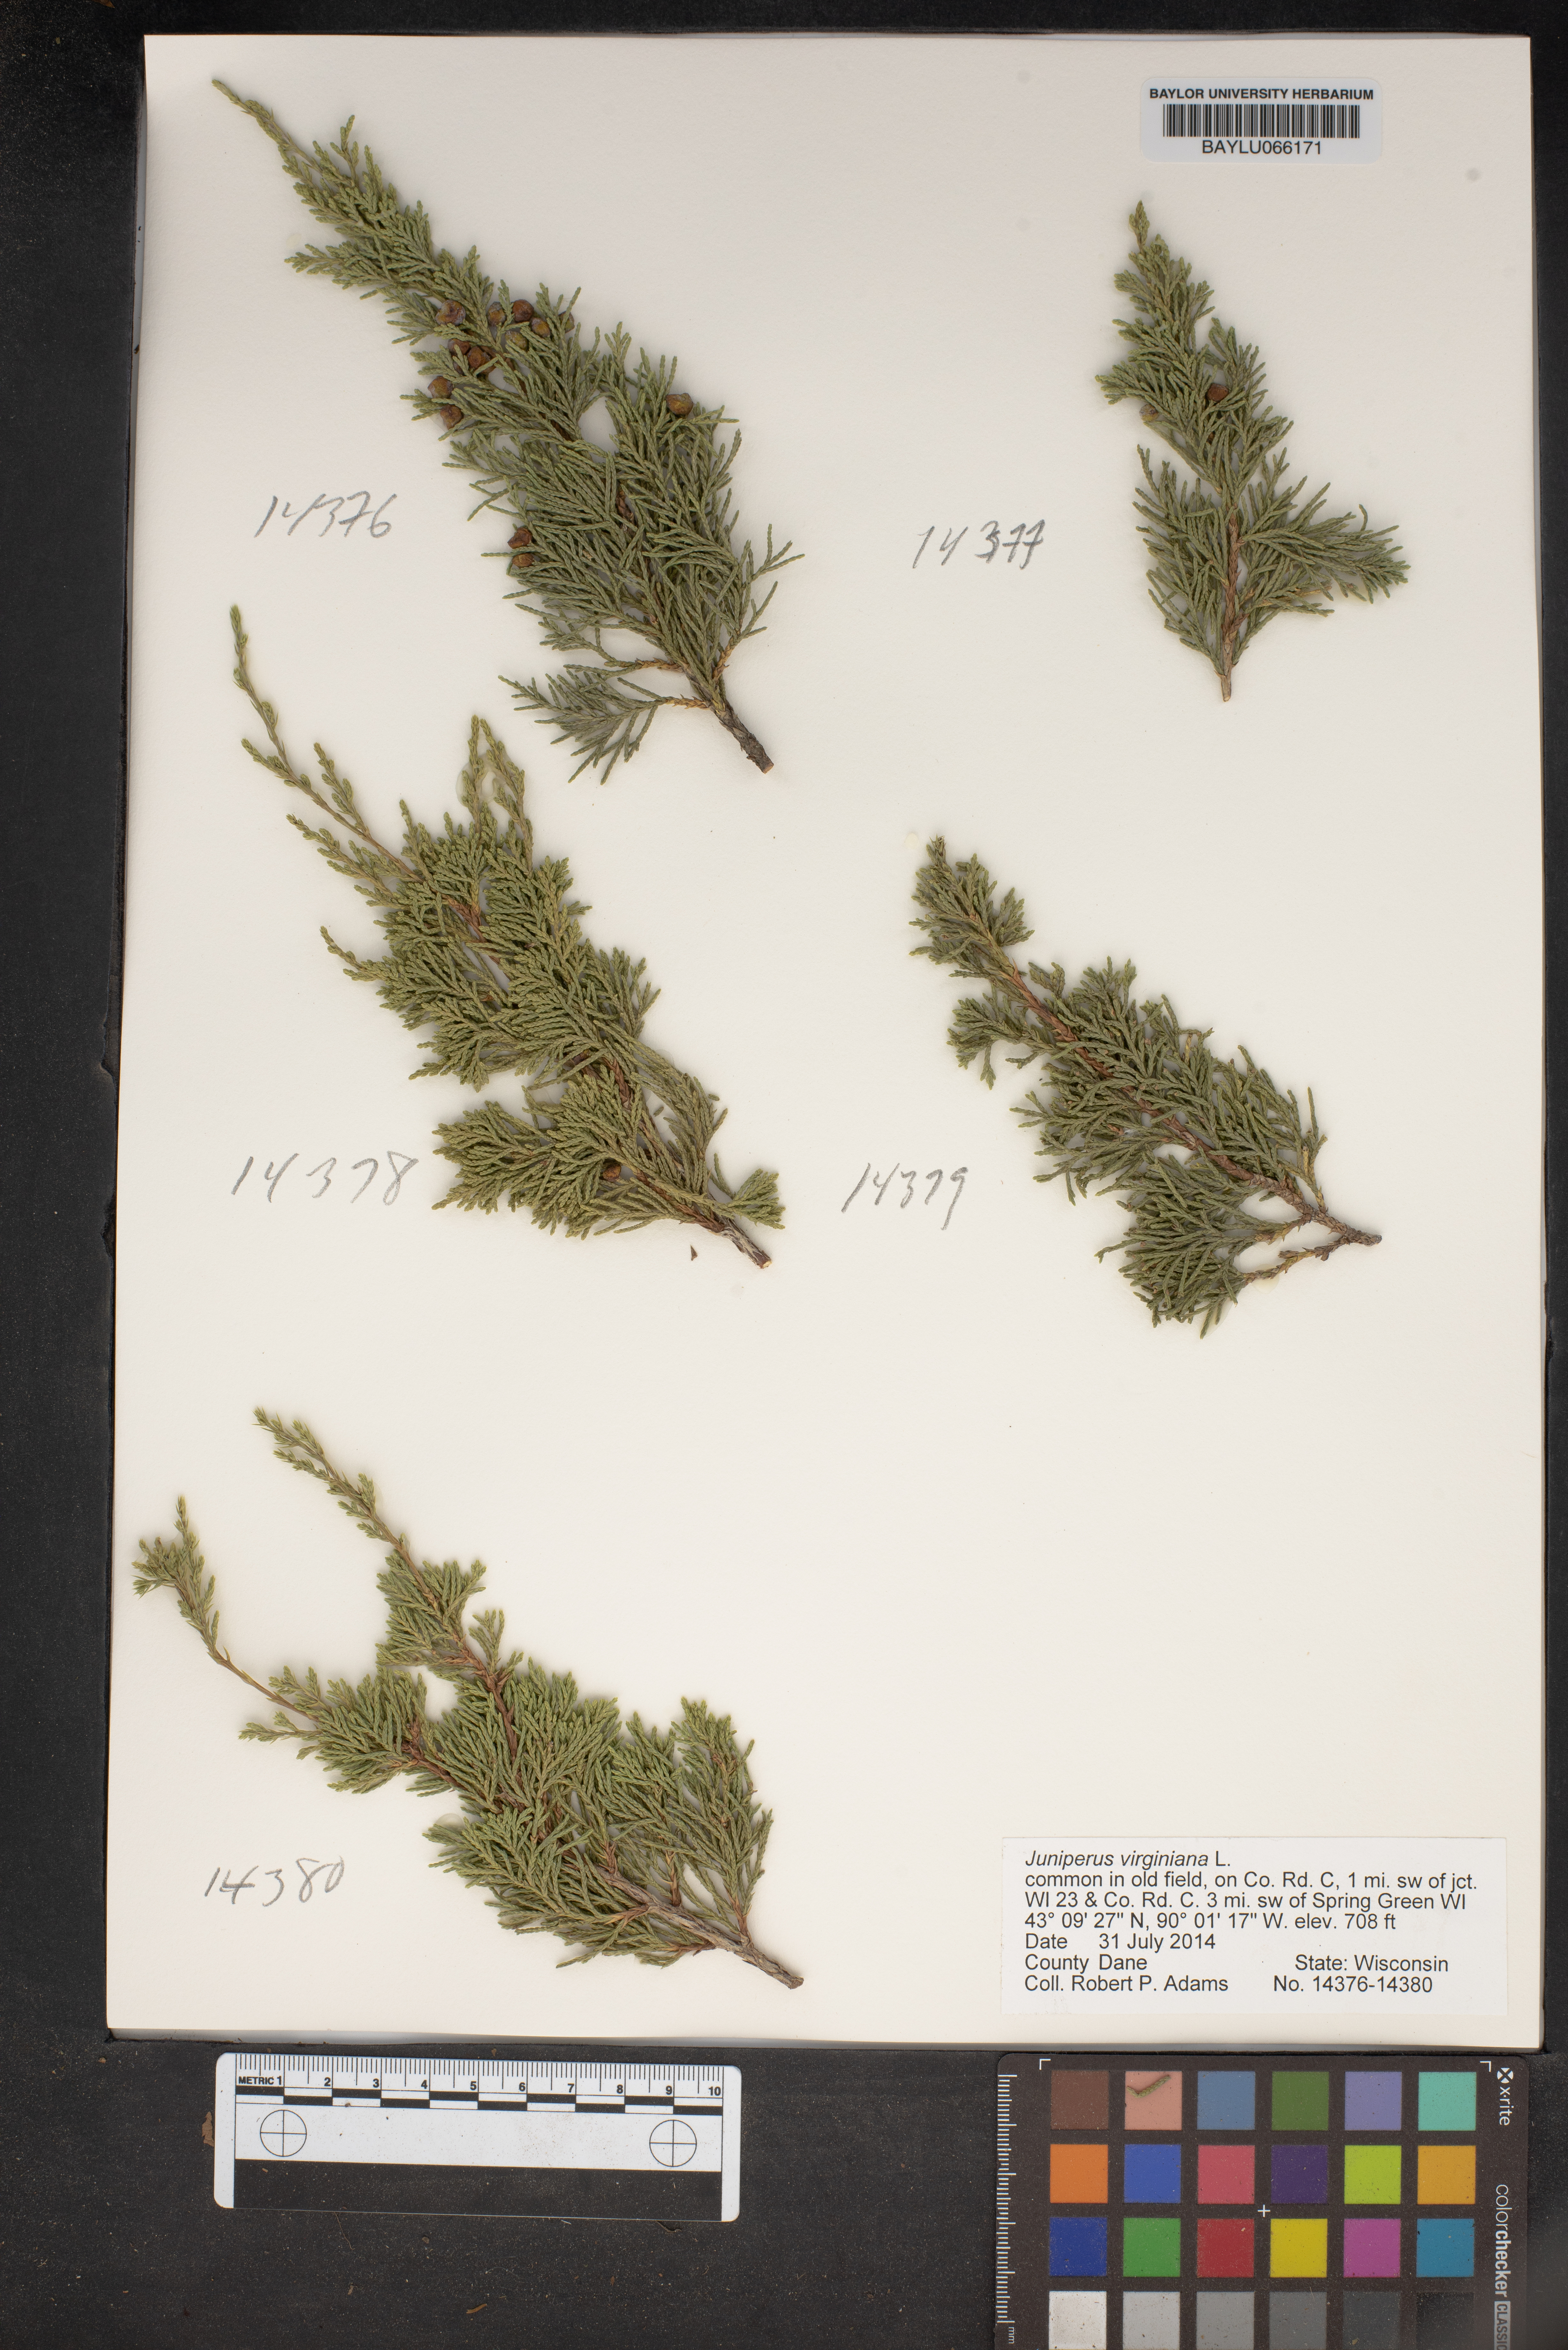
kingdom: Plantae
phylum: Tracheophyta
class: Pinopsida
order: Pinales
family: Cupressaceae
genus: Juniperus
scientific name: Juniperus virginiana
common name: Red juniper
